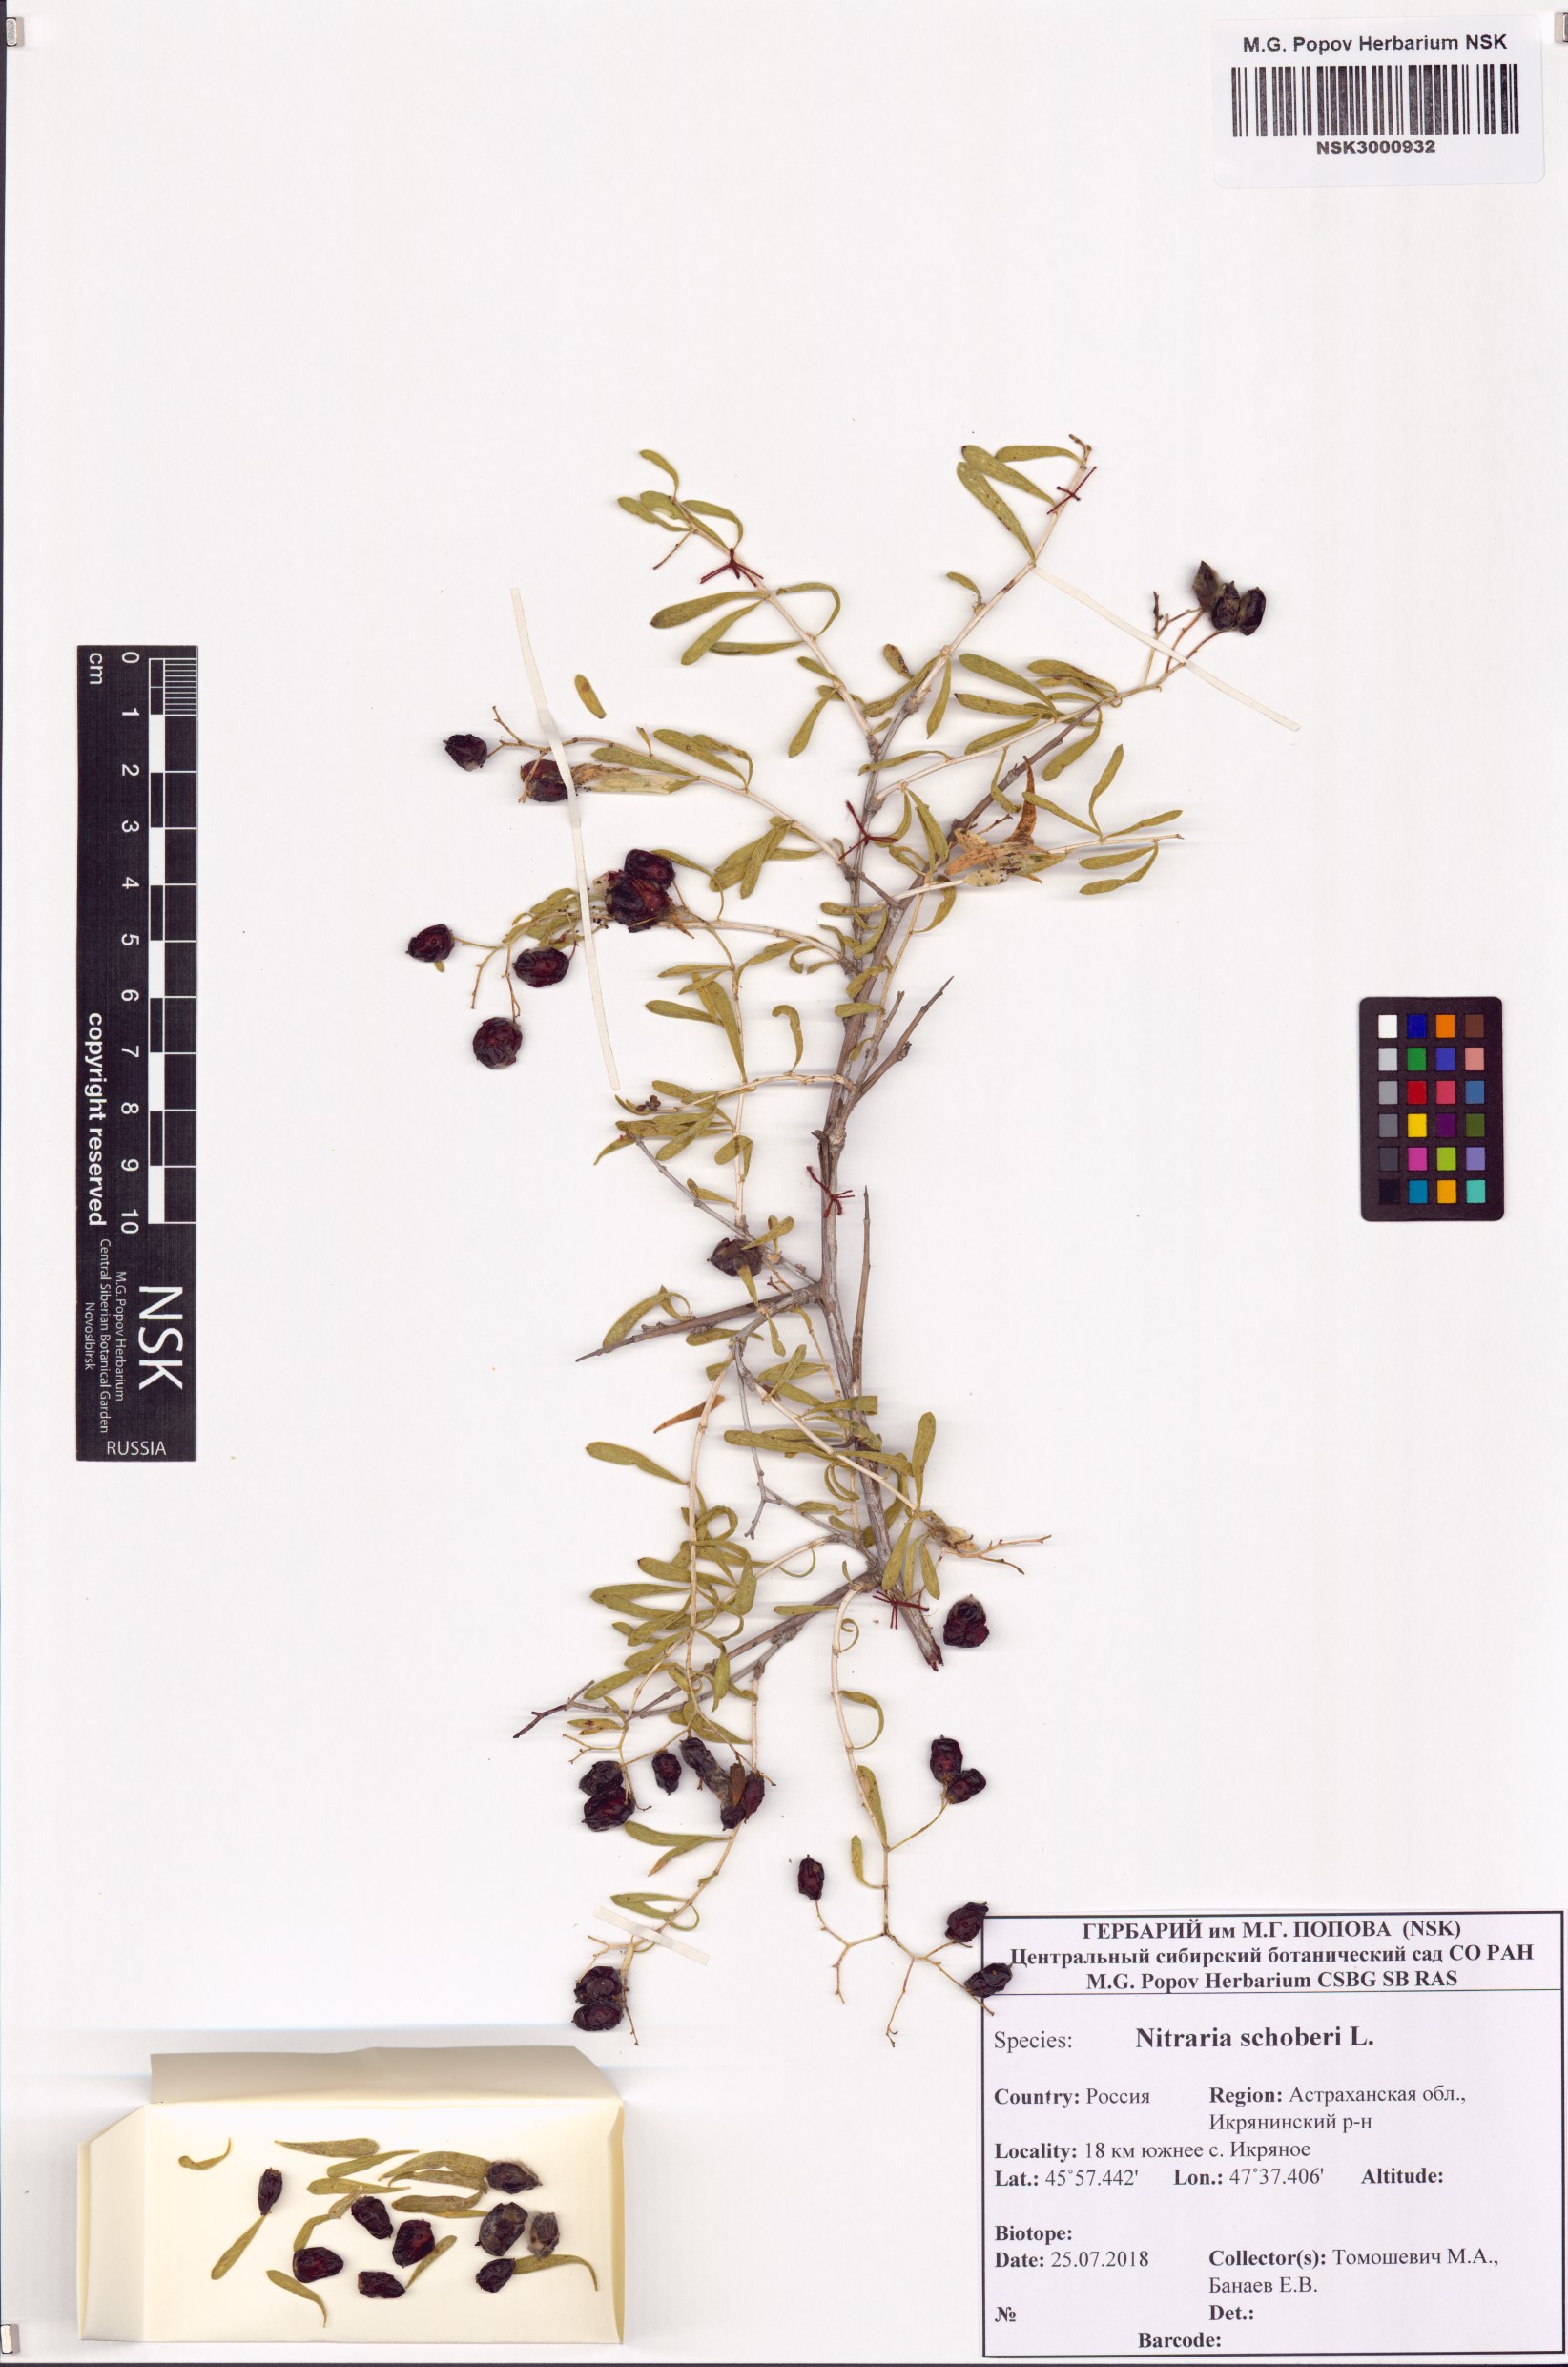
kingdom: Plantae
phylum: Tracheophyta
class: Magnoliopsida
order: Sapindales
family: Nitrariaceae
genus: Nitraria
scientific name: Nitraria schoberi
